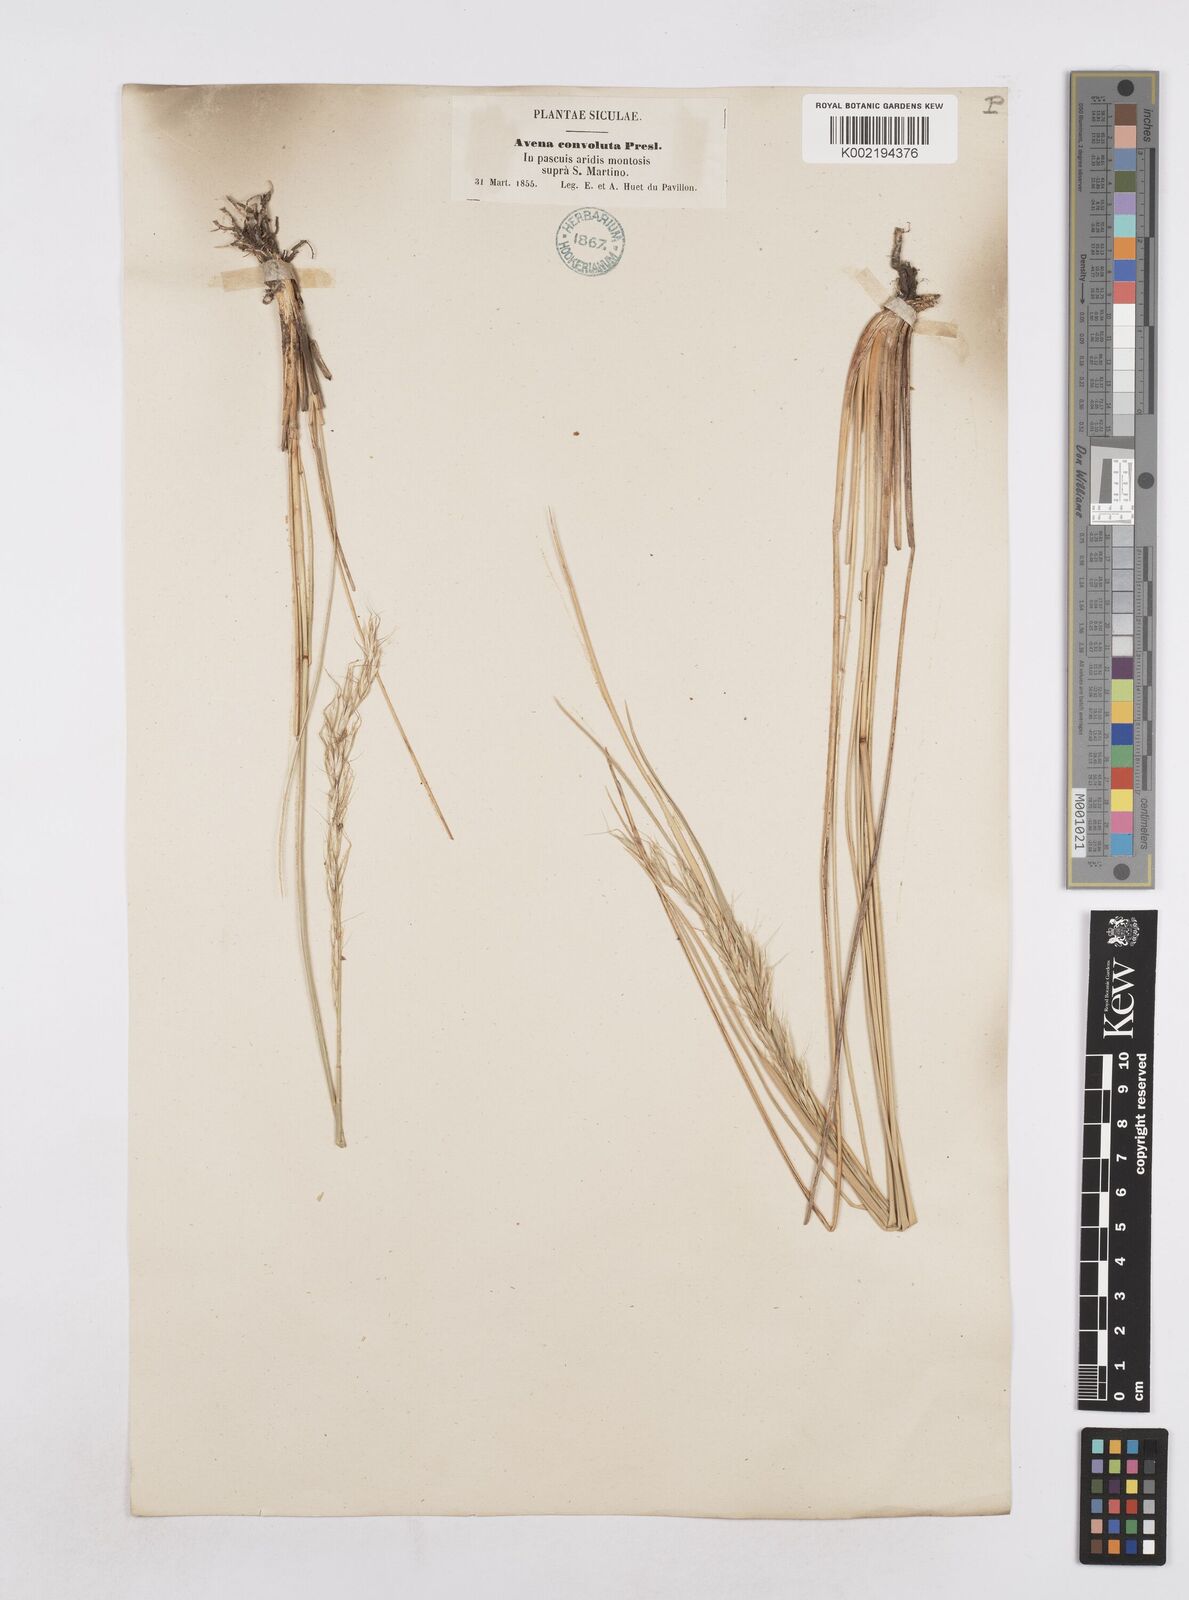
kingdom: Plantae
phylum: Tracheophyta
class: Liliopsida
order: Poales
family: Poaceae
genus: Helictotrichon
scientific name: Helictotrichon parlatorei
